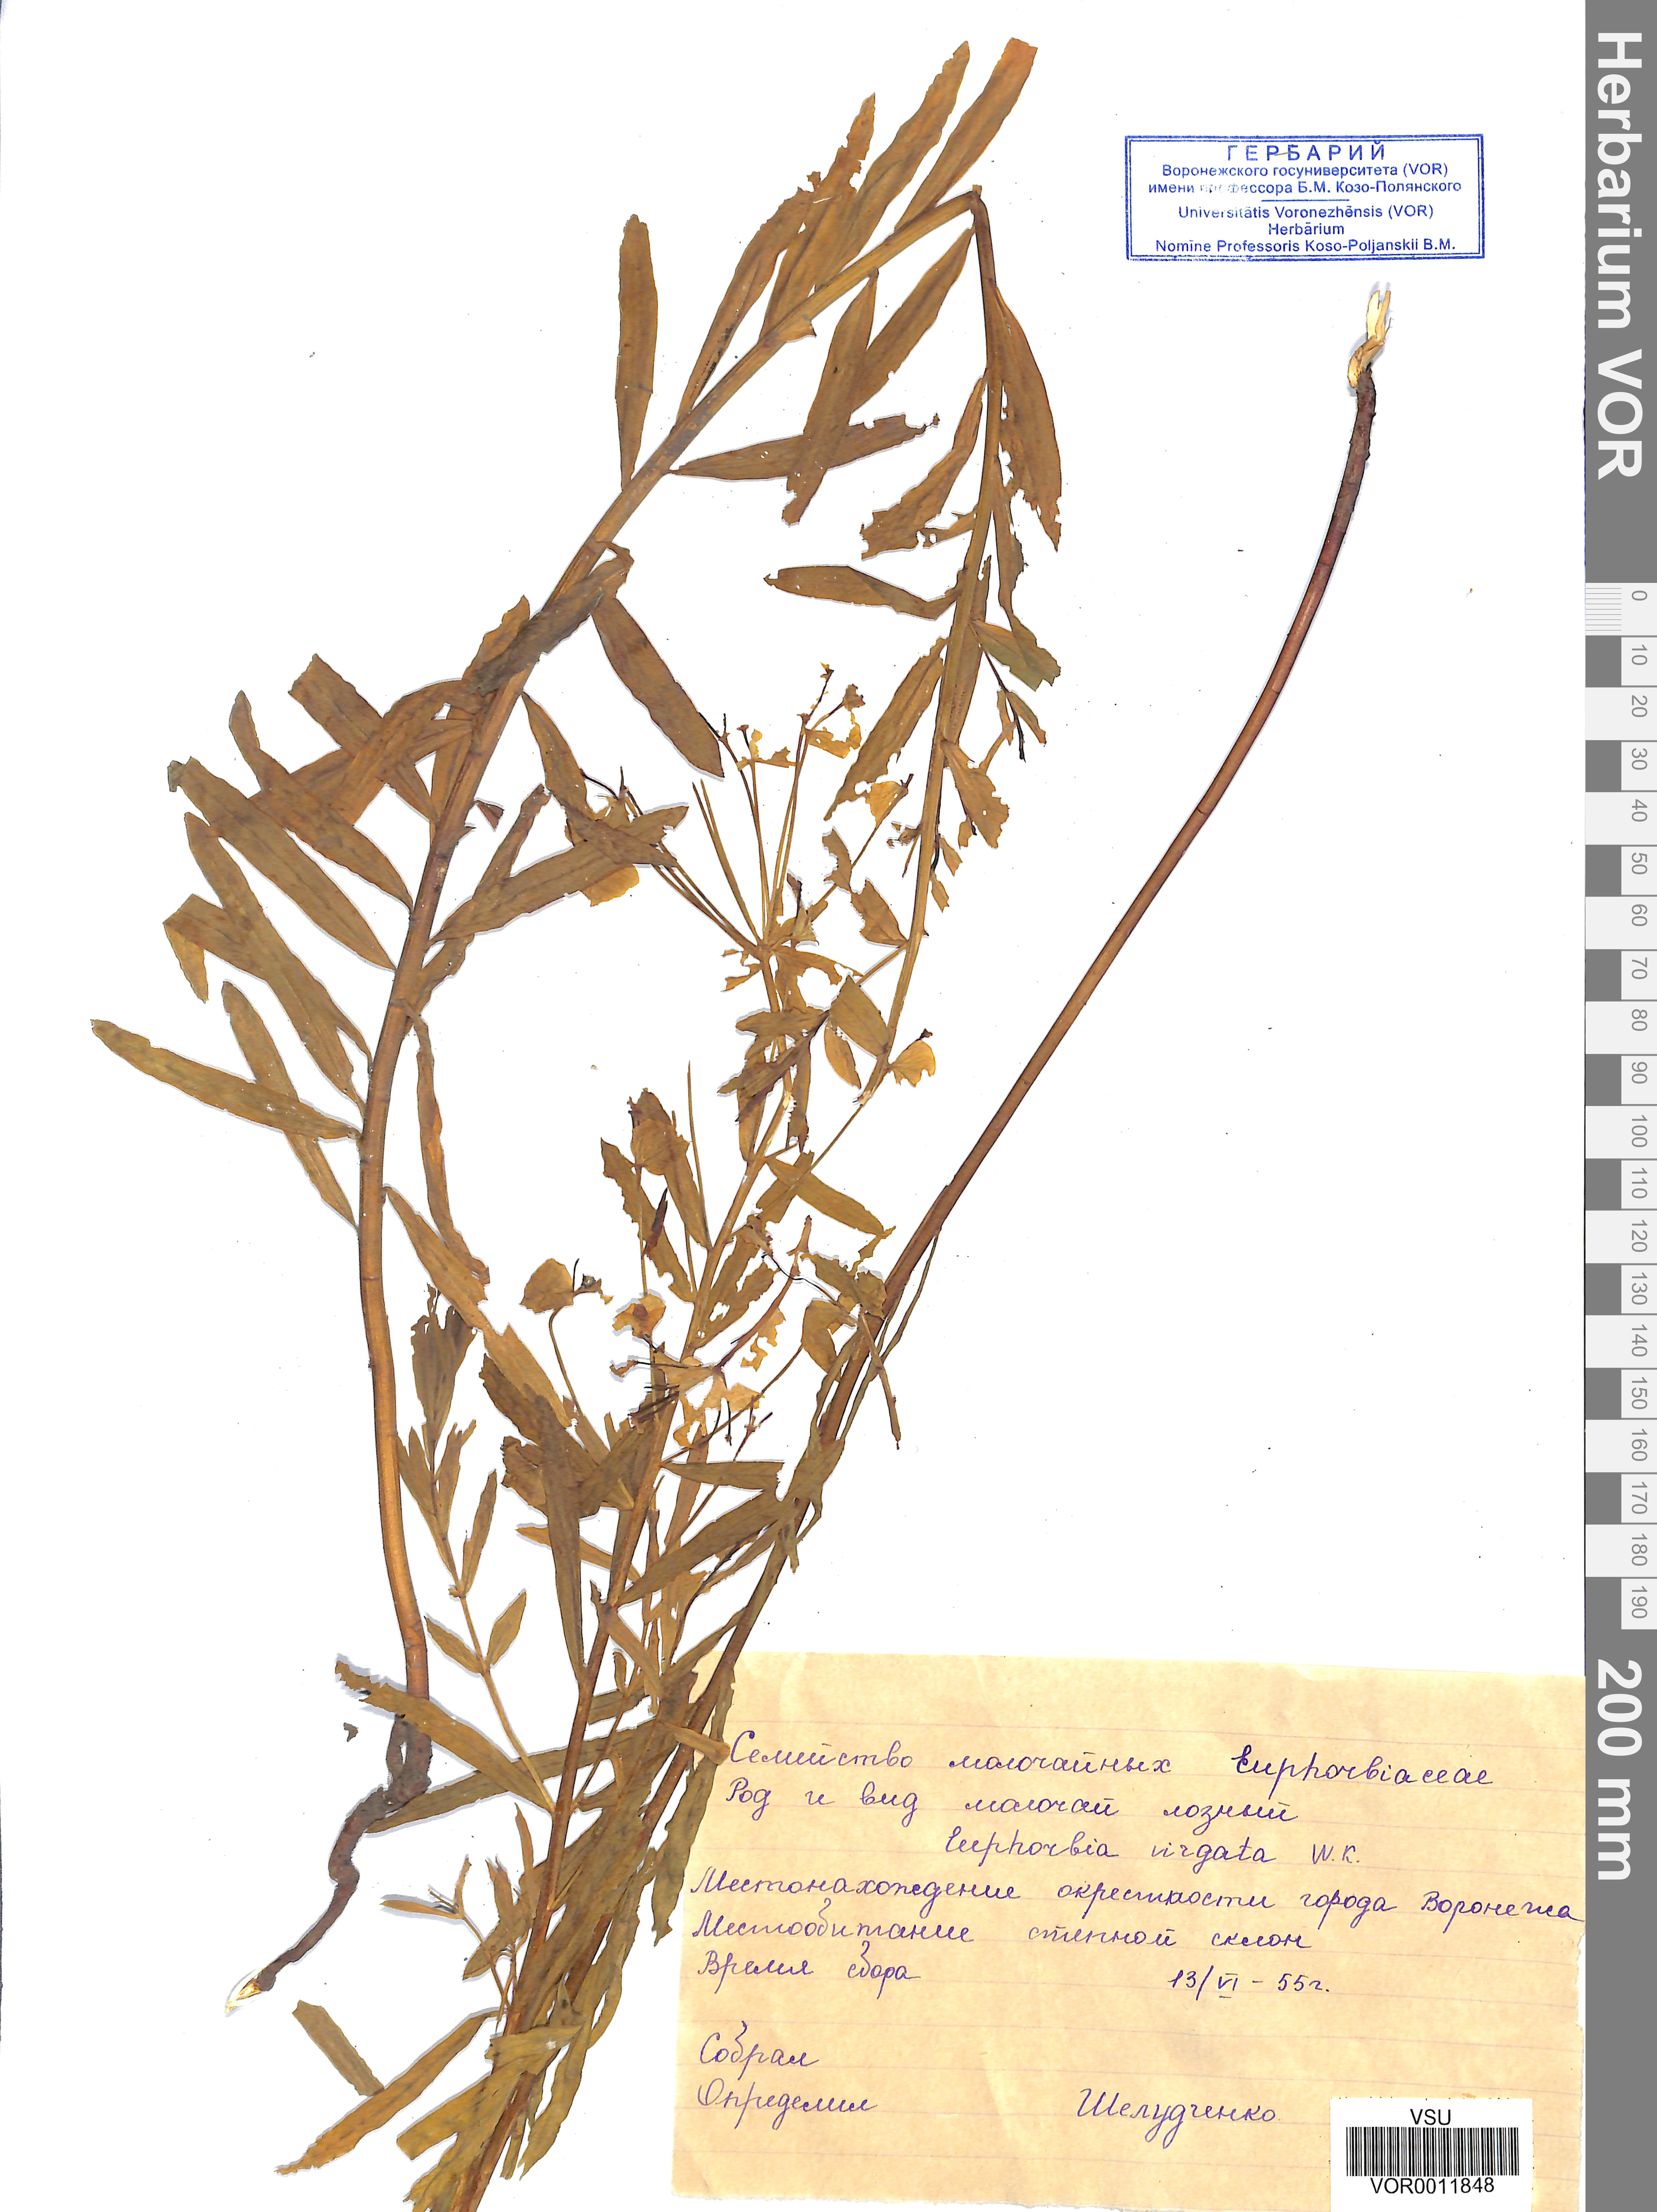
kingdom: Plantae
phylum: Tracheophyta
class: Magnoliopsida
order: Malpighiales
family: Euphorbiaceae
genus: Euphorbia
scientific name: Euphorbia virgata
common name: Leafy spurge
